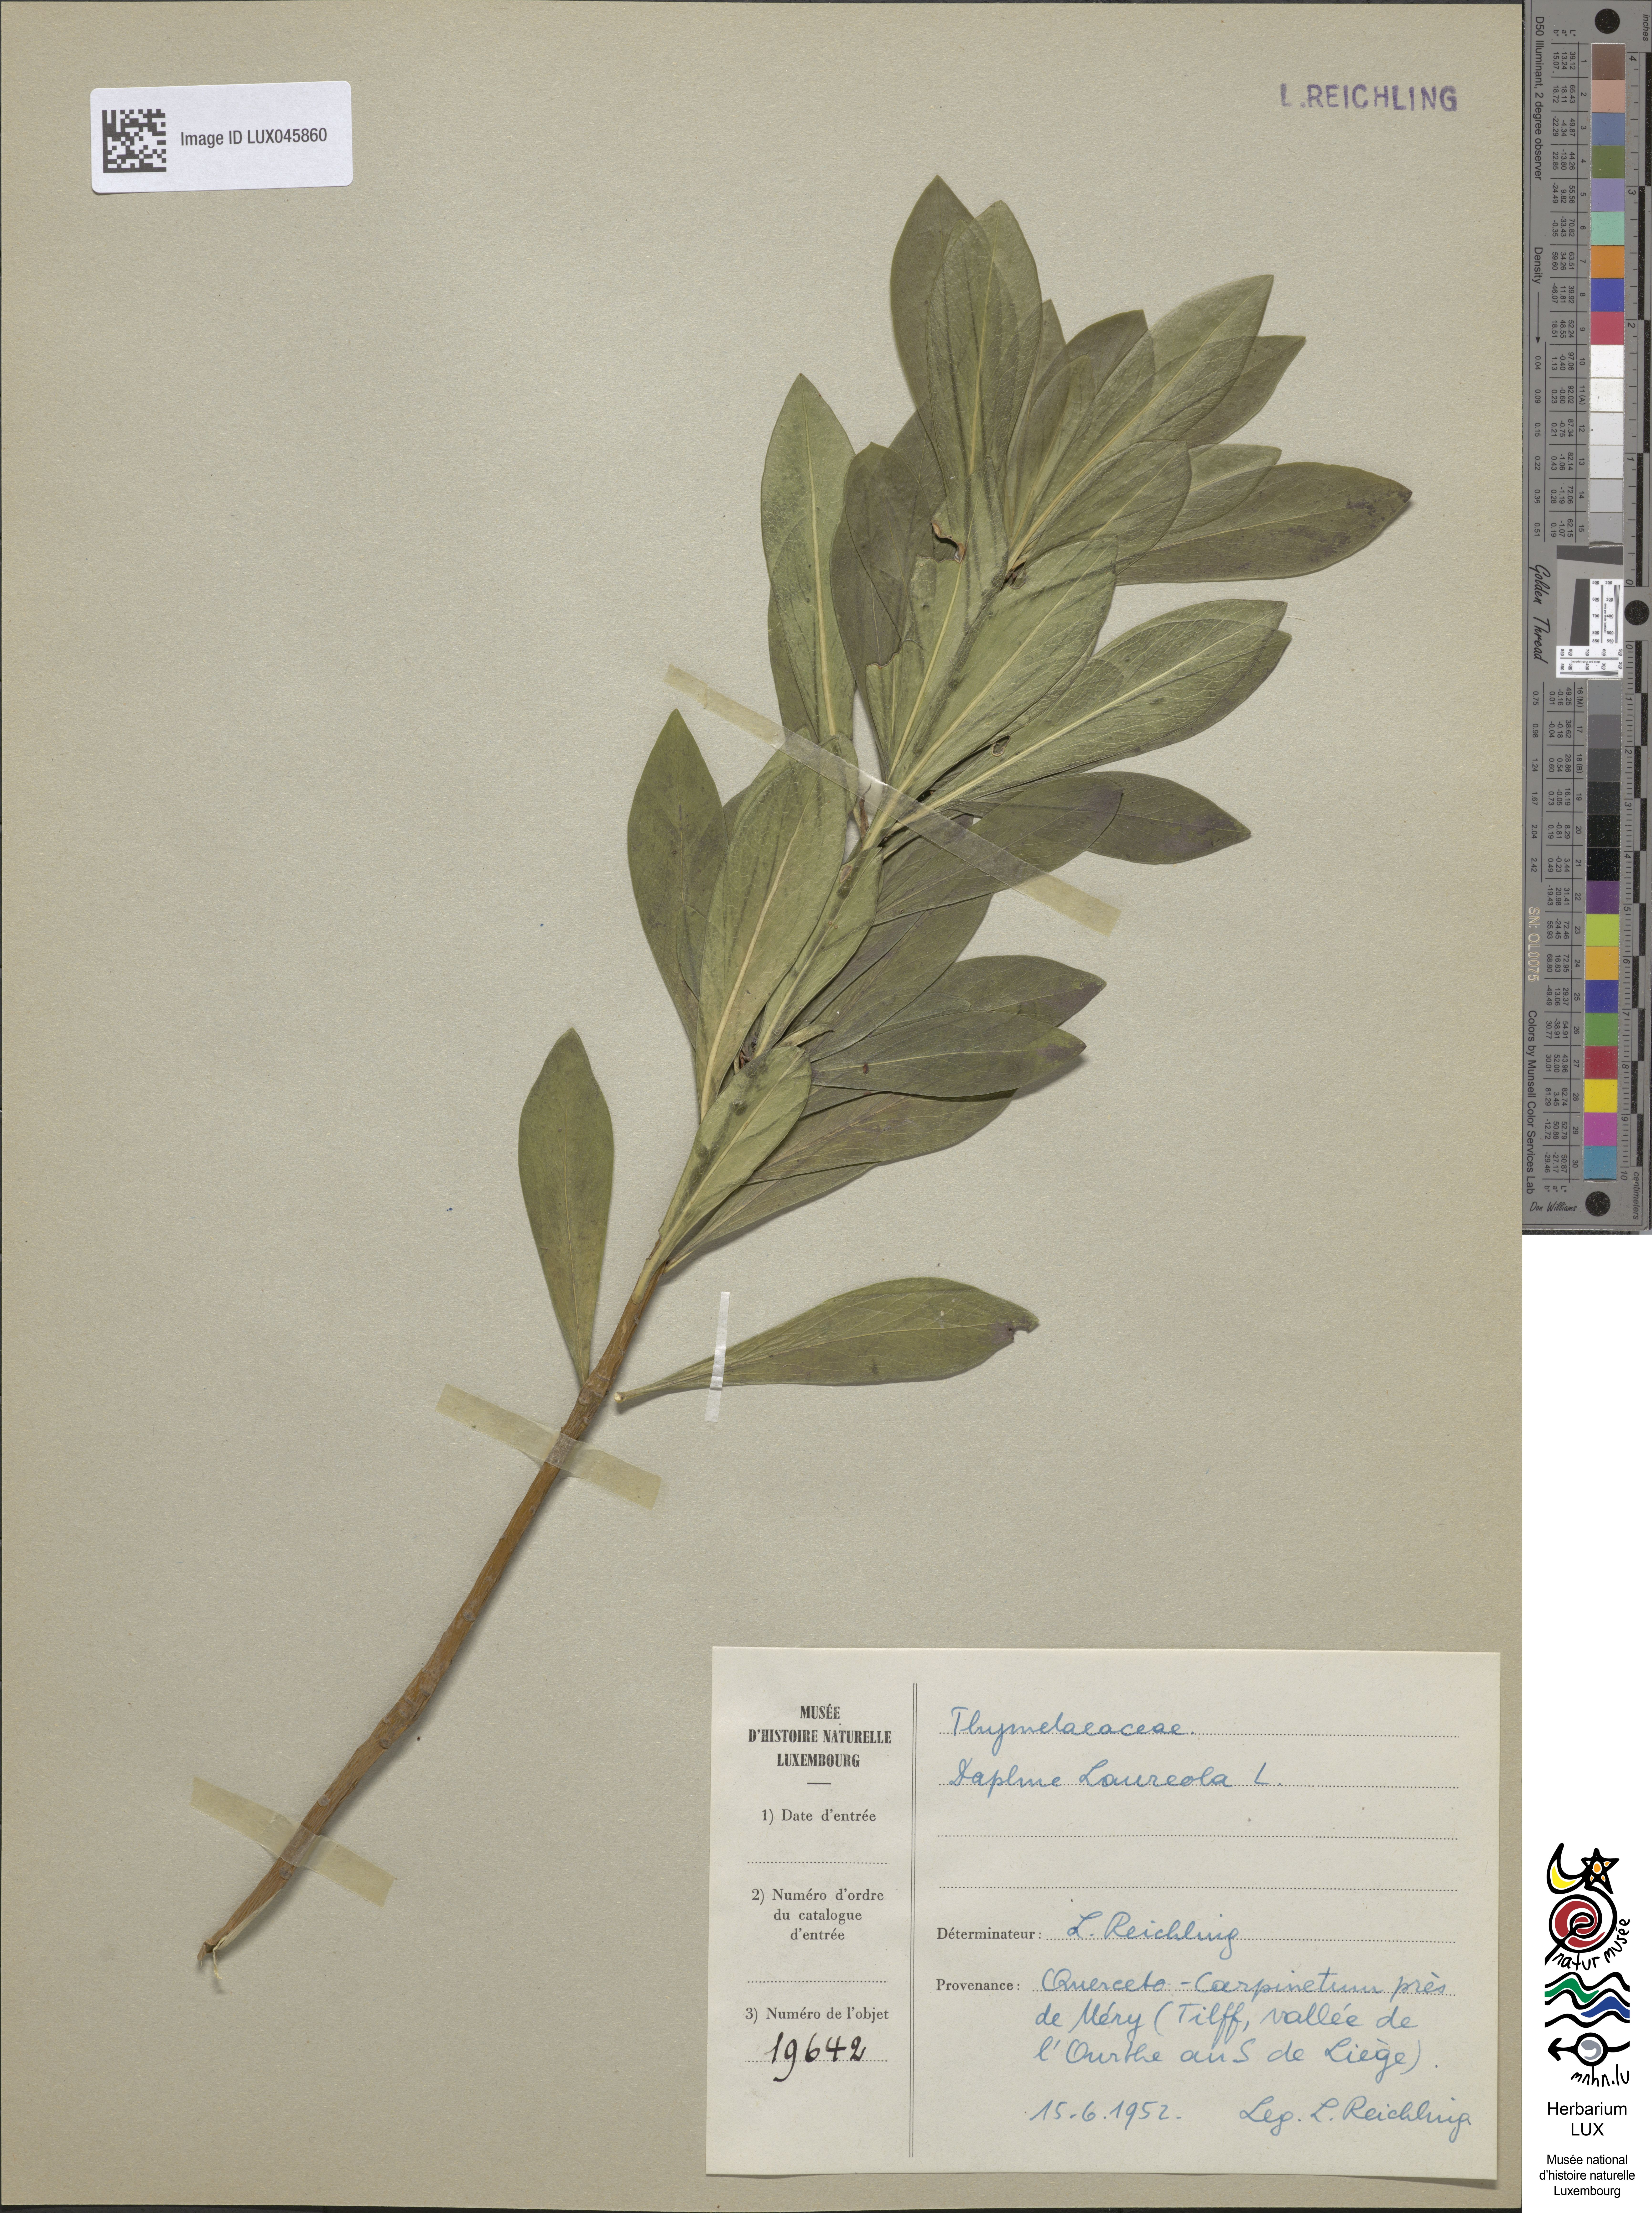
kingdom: Plantae
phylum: Tracheophyta
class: Magnoliopsida
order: Malvales
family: Thymelaeaceae
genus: Daphne
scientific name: Daphne laureola
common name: Spurge-laurel
